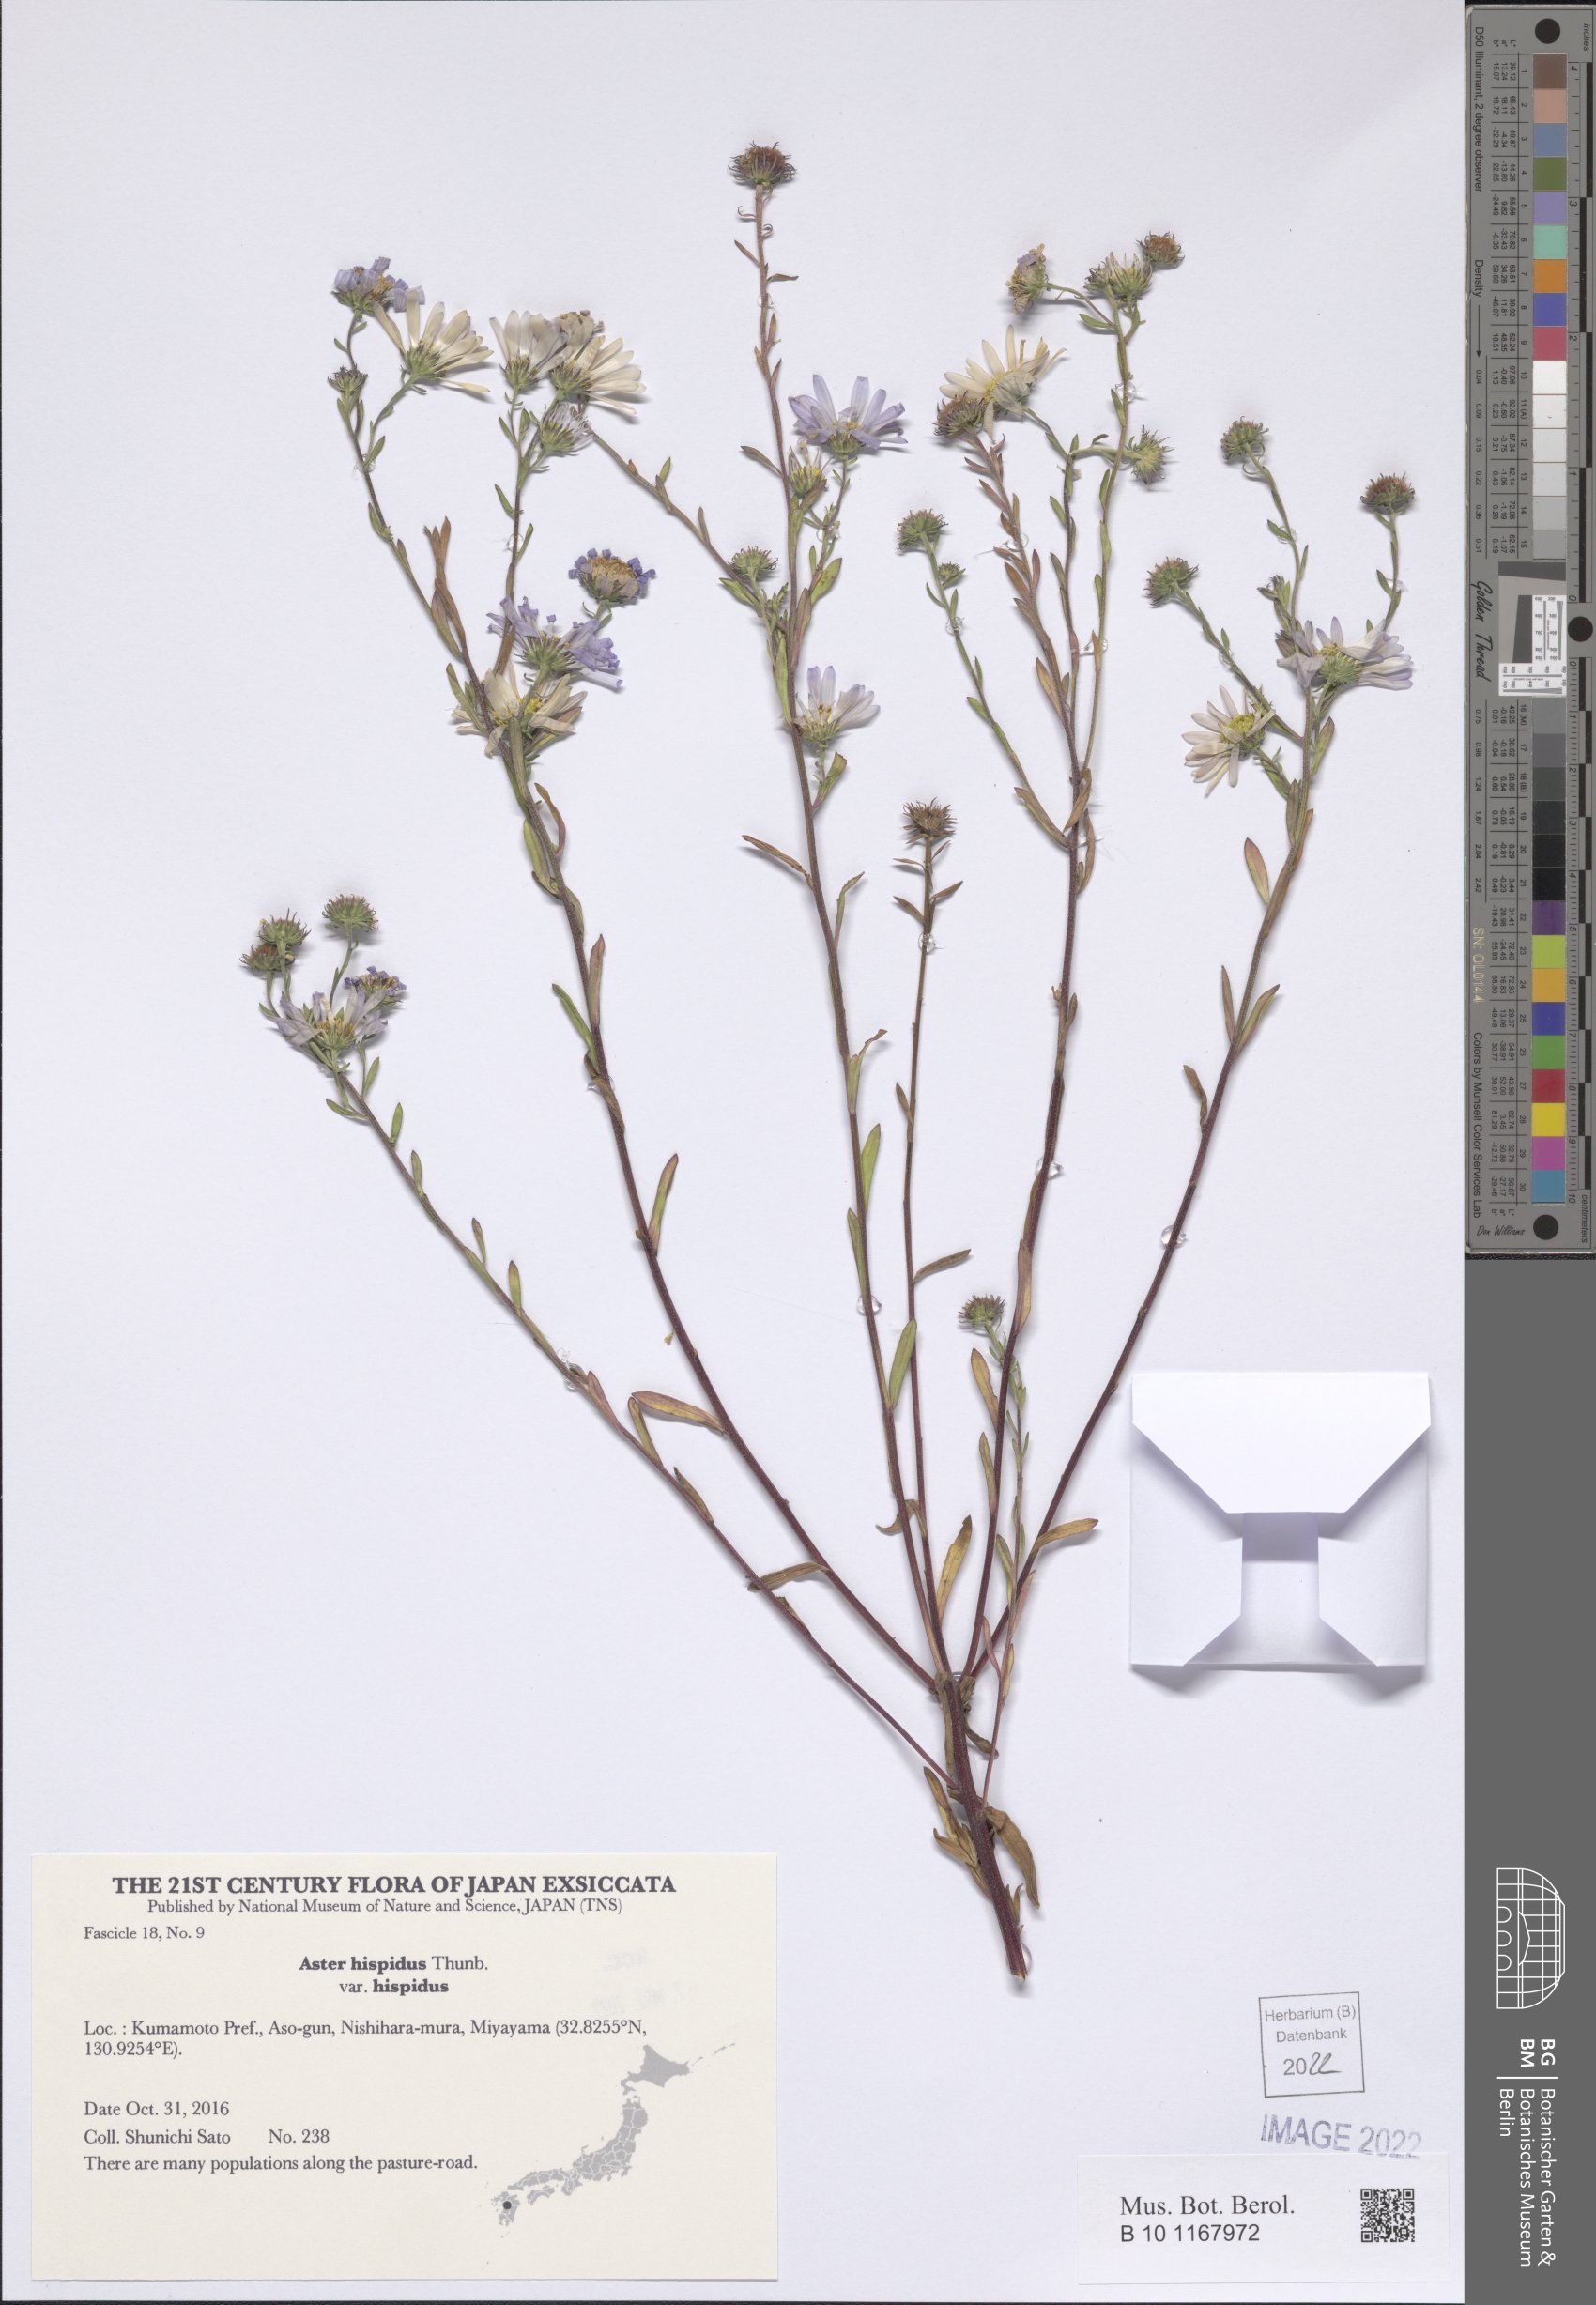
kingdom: Plantae
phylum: Tracheophyta
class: Magnoliopsida
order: Asterales
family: Asteraceae
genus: Afroaster
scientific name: Afroaster hispidus
